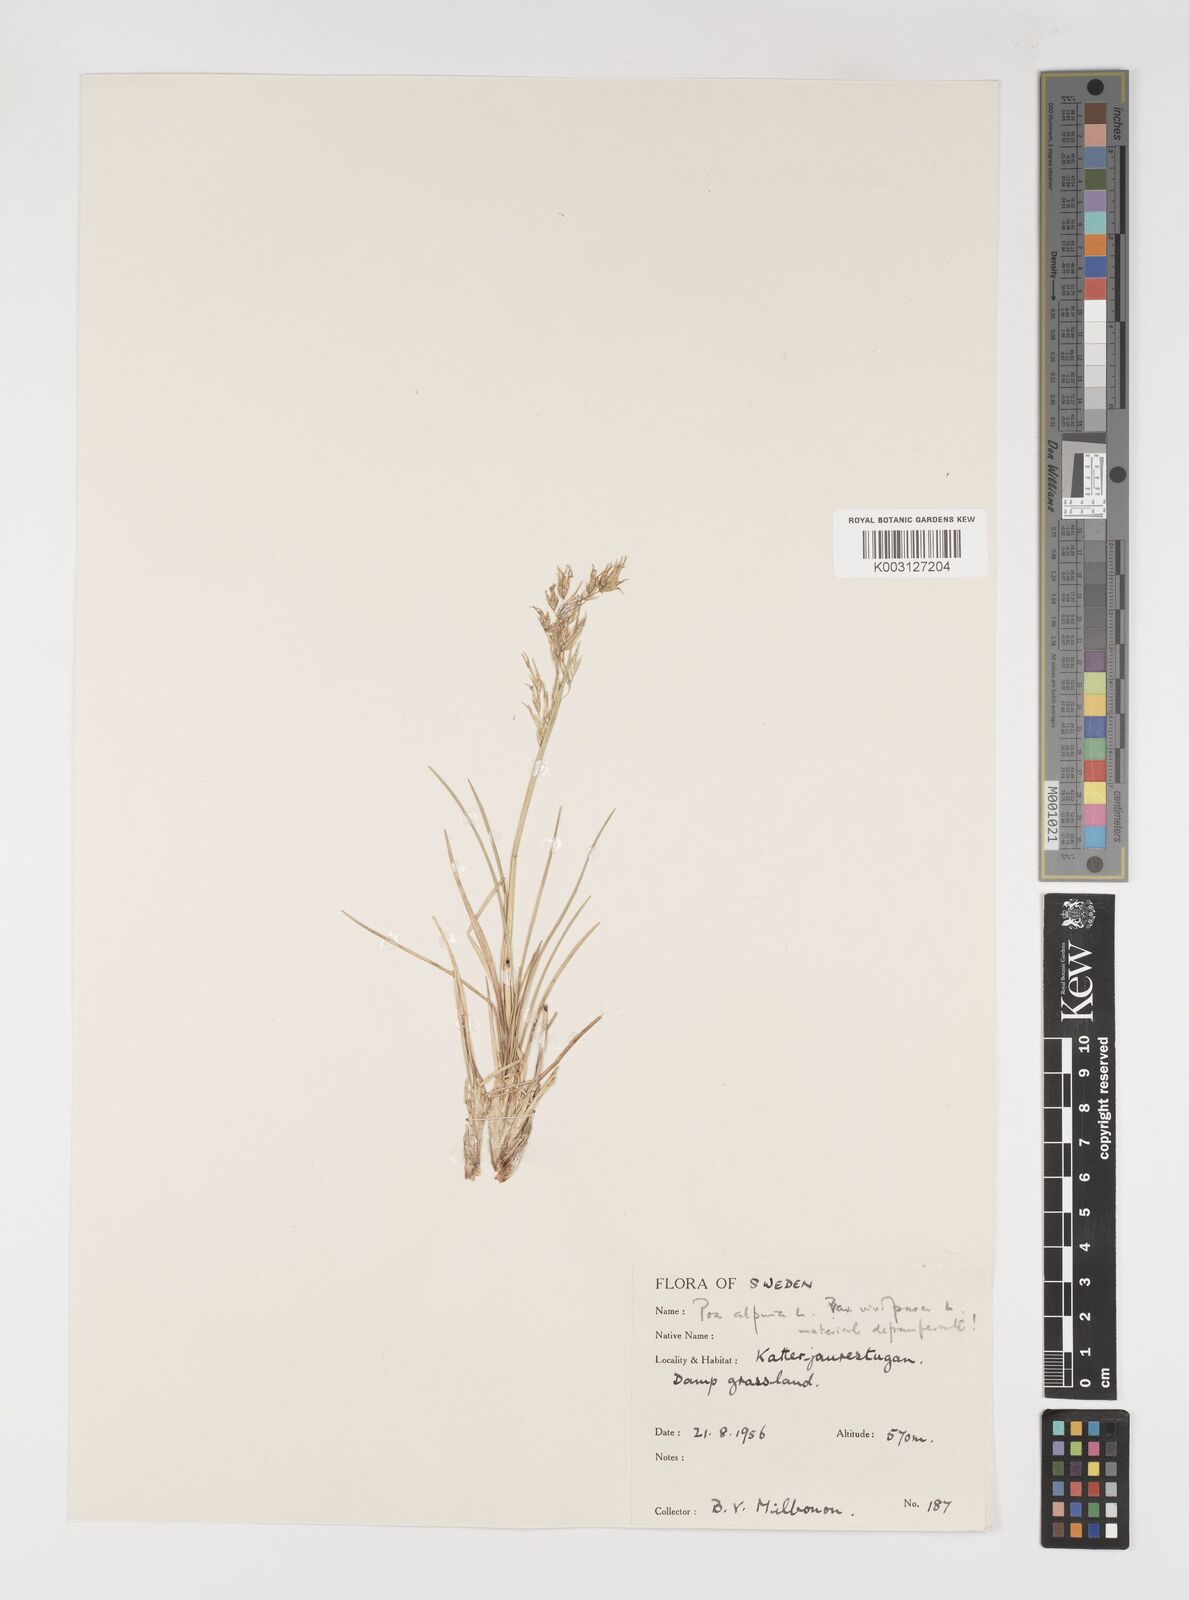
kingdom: Plantae
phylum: Tracheophyta
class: Liliopsida
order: Poales
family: Poaceae
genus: Poa
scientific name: Poa alpina
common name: Alpine bluegrass
